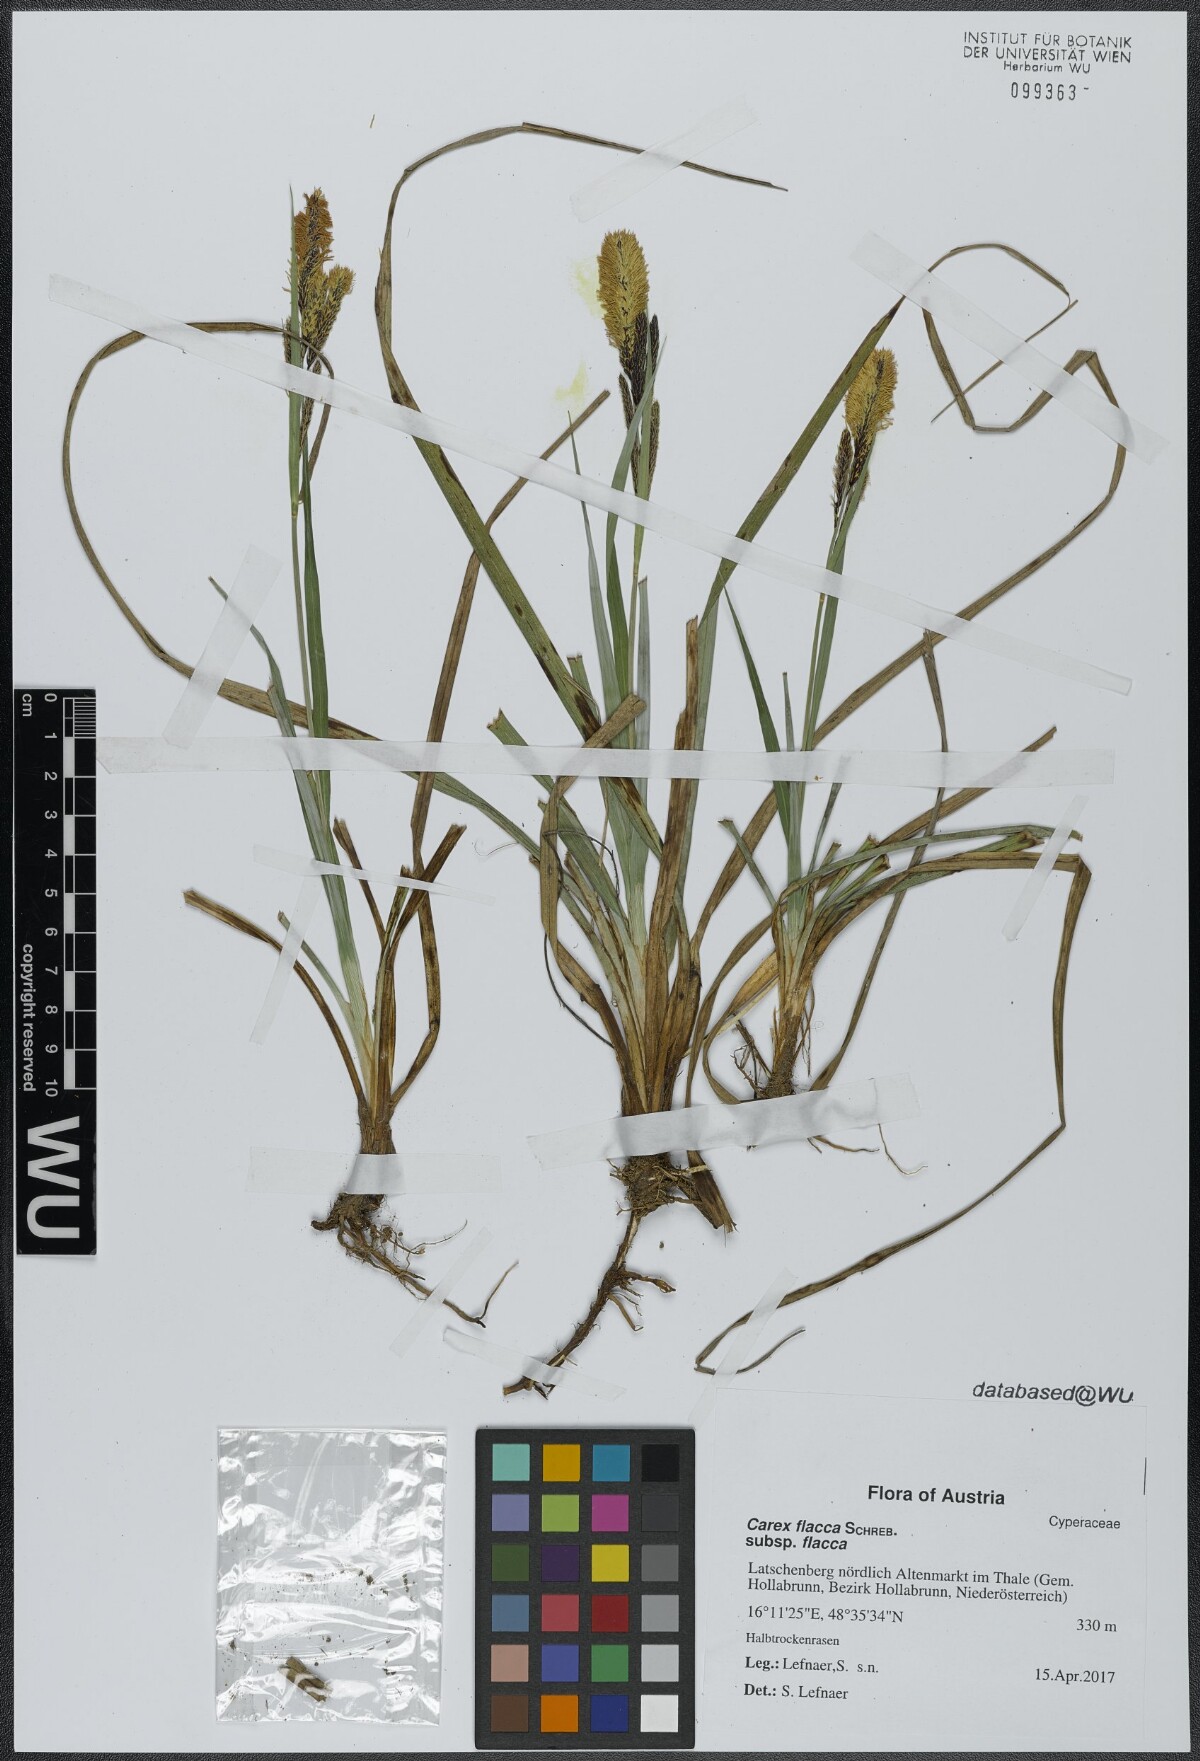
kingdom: Plantae
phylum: Tracheophyta
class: Liliopsida
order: Poales
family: Cyperaceae
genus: Carex
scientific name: Carex flacca
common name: Glaucous sedge
